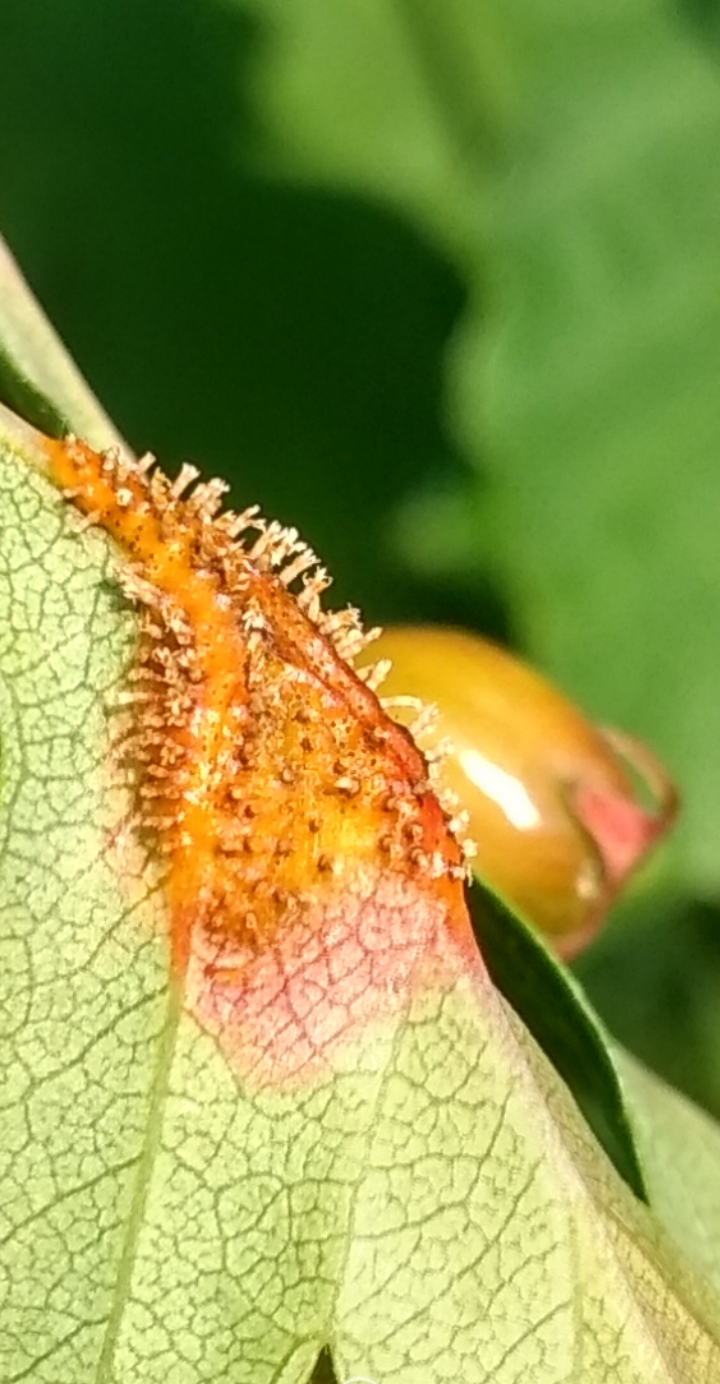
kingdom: Fungi
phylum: Basidiomycota
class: Pucciniomycetes
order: Pucciniales
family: Gymnosporangiaceae
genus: Gymnosporangium
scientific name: Gymnosporangium
